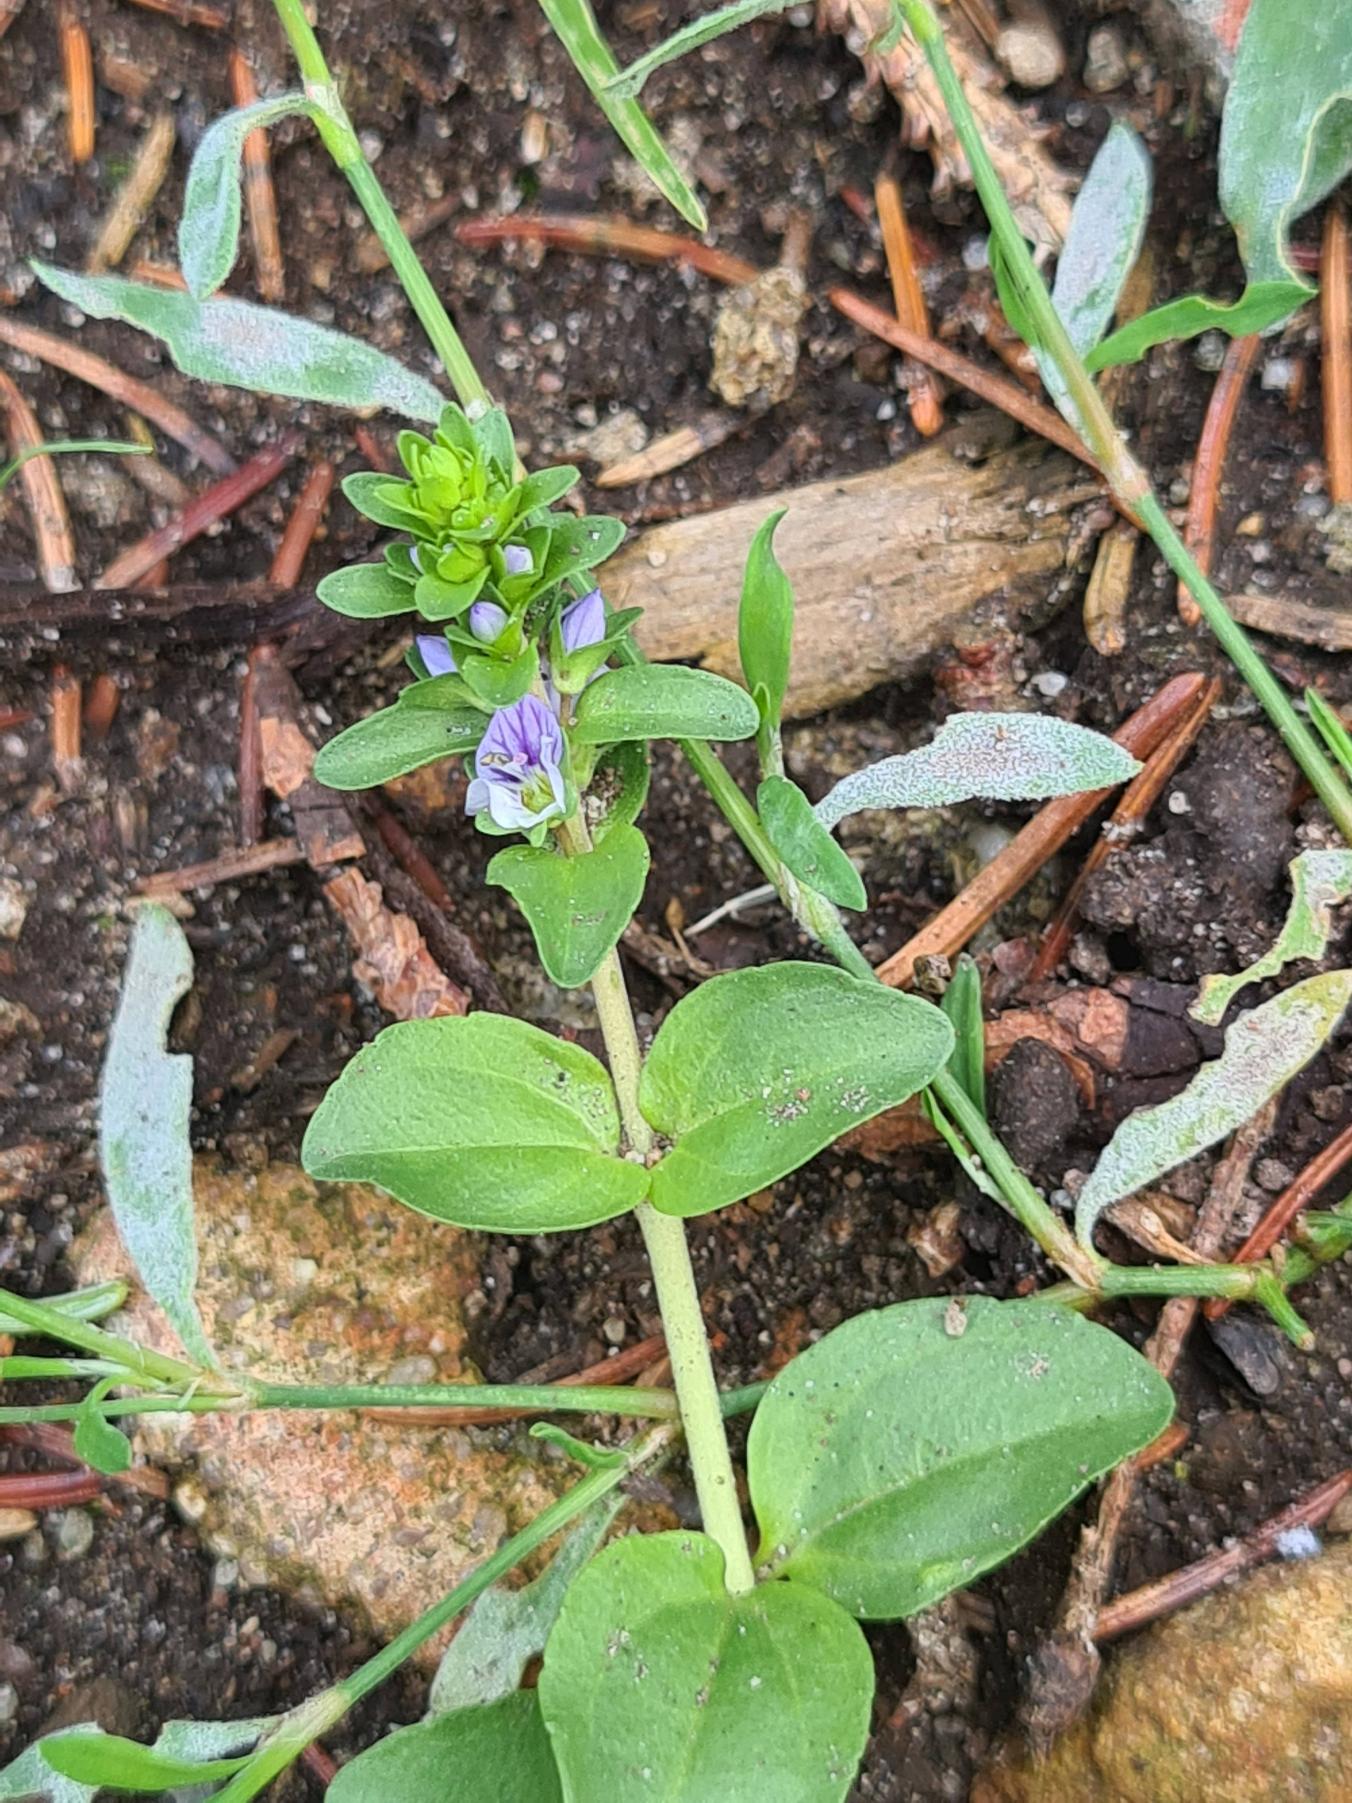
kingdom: Plantae
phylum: Tracheophyta
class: Magnoliopsida
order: Lamiales
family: Plantaginaceae
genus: Veronica
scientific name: Veronica serpyllifolia
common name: Glat ærenpris
